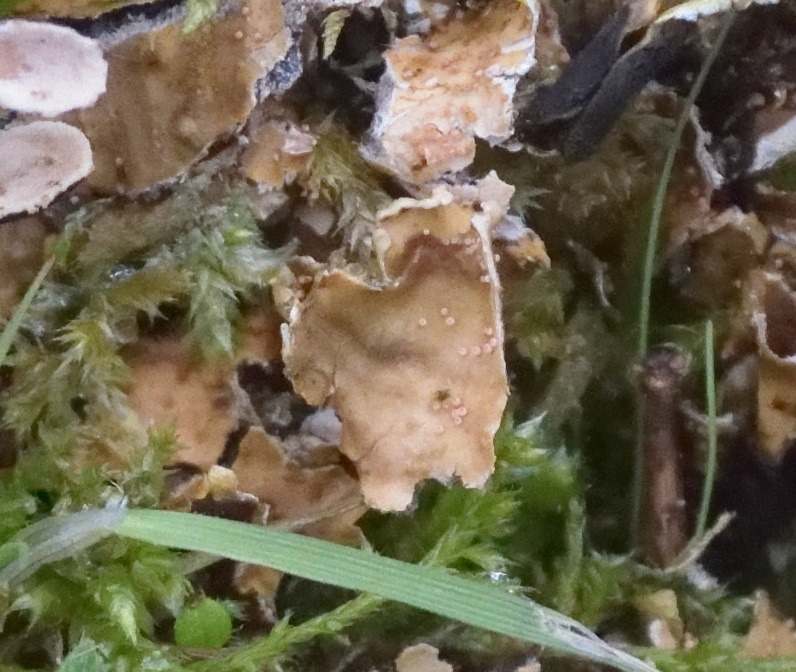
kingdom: Fungi
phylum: Ascomycota
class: Sordariomycetes
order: Hypocreales
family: Bionectriaceae
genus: Nectriopsis
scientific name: Nectriopsis lecanodes
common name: skjoldlav-gyldenkerne
